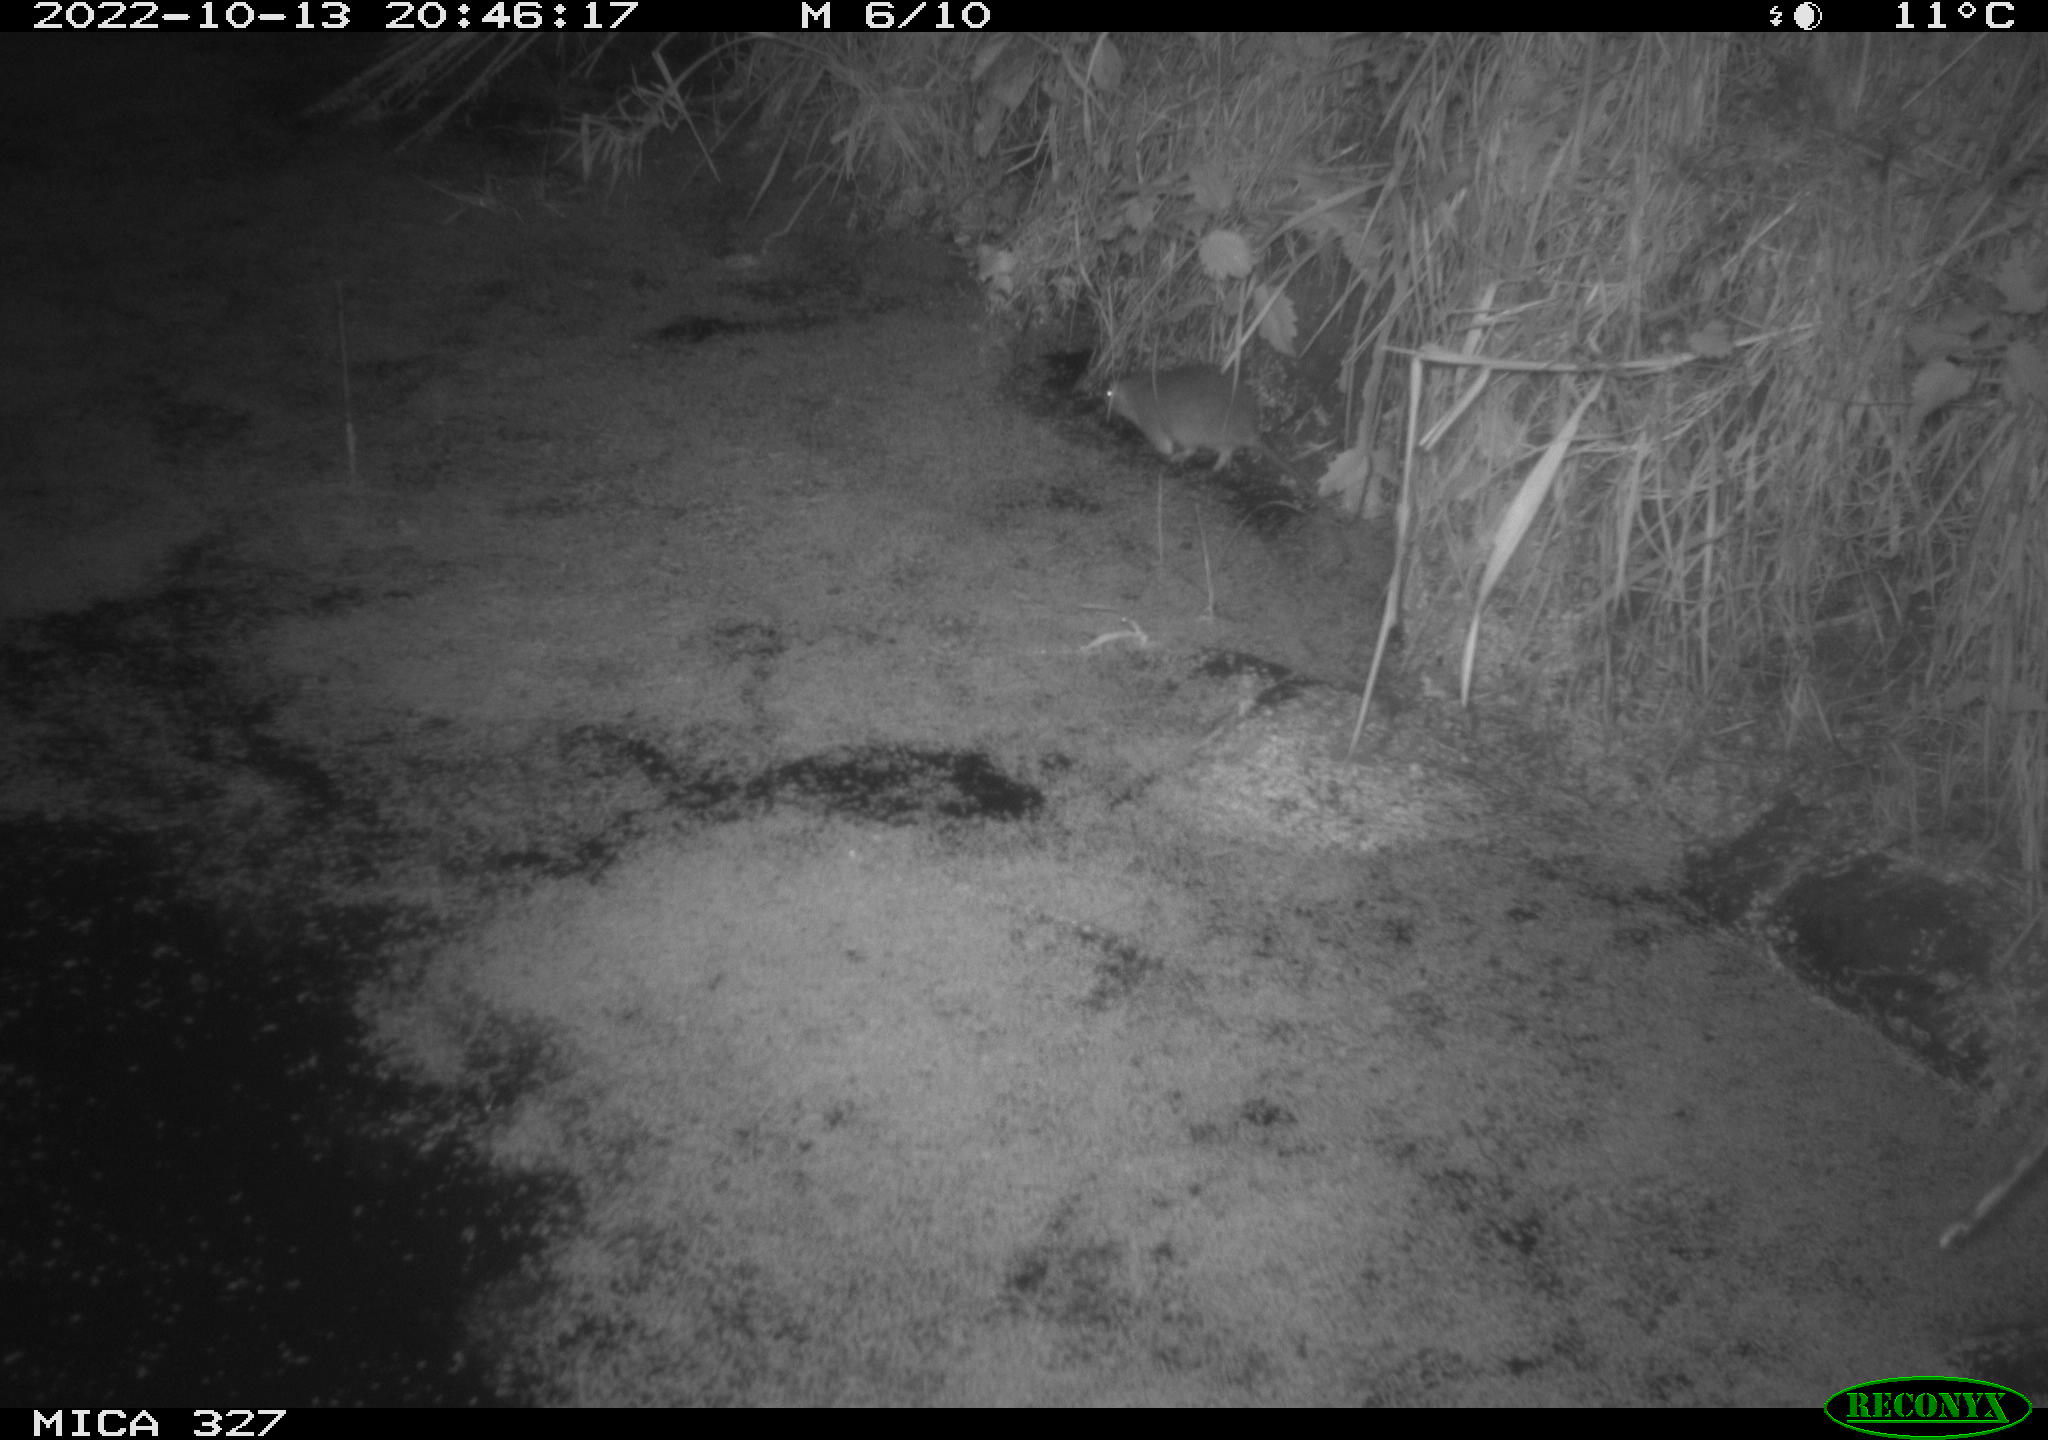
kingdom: Animalia
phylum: Chordata
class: Mammalia
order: Rodentia
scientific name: Rodentia
